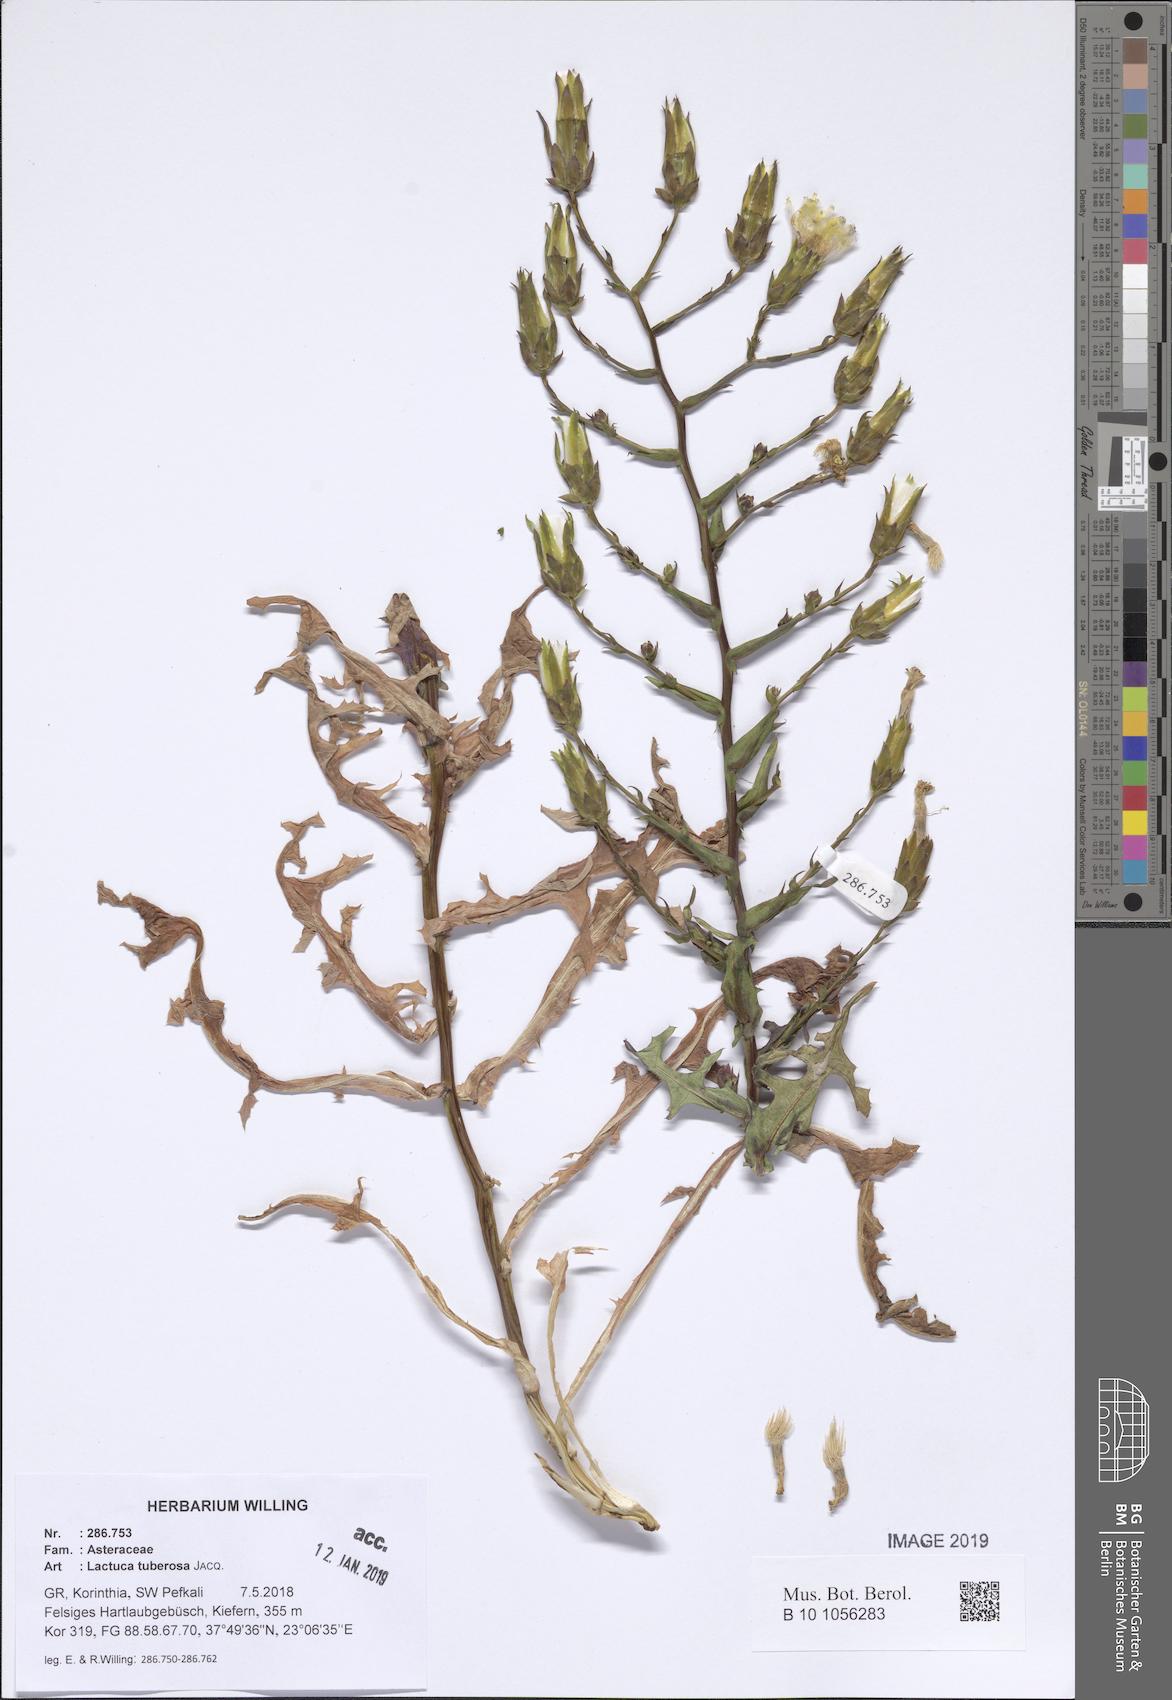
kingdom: Plantae
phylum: Tracheophyta
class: Magnoliopsida
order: Asterales
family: Asteraceae
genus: Lactuca
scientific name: Lactuca tuberosa
